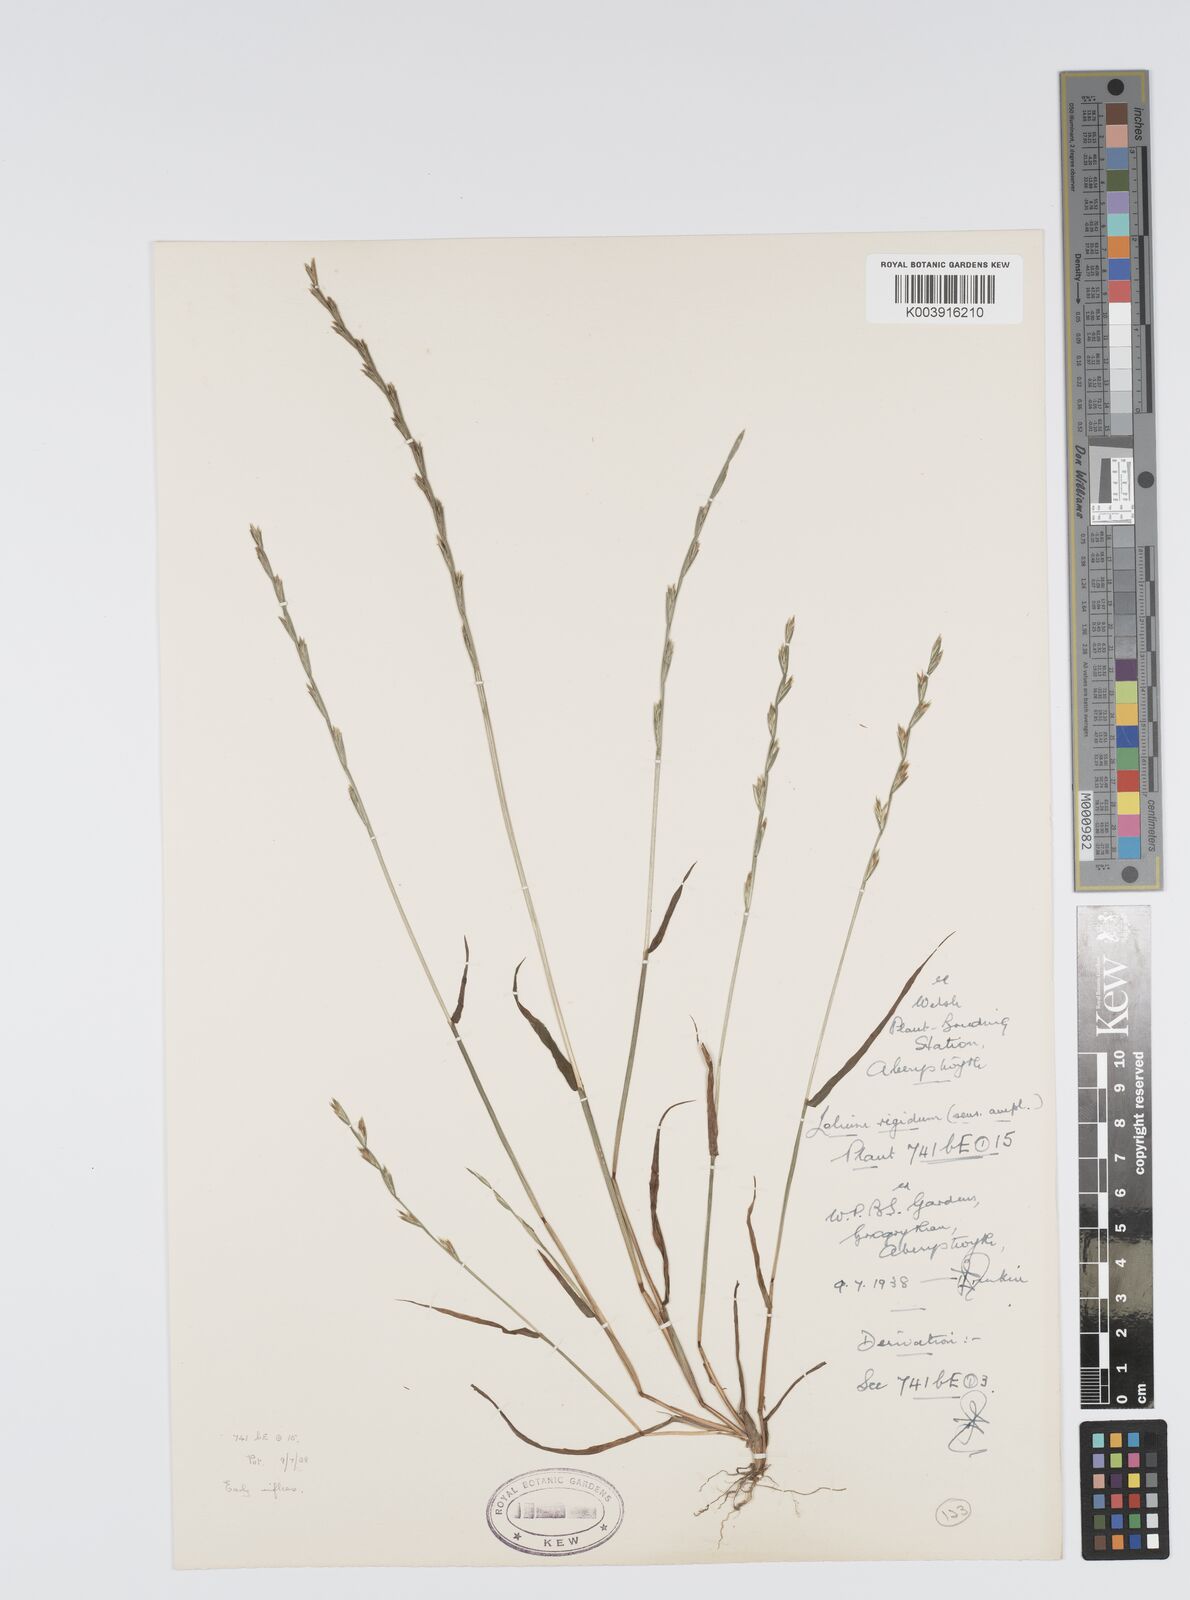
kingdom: Plantae
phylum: Tracheophyta
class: Liliopsida
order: Poales
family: Poaceae
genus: Lolium
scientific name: Lolium rigidum
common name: Wimmera ryegrass
